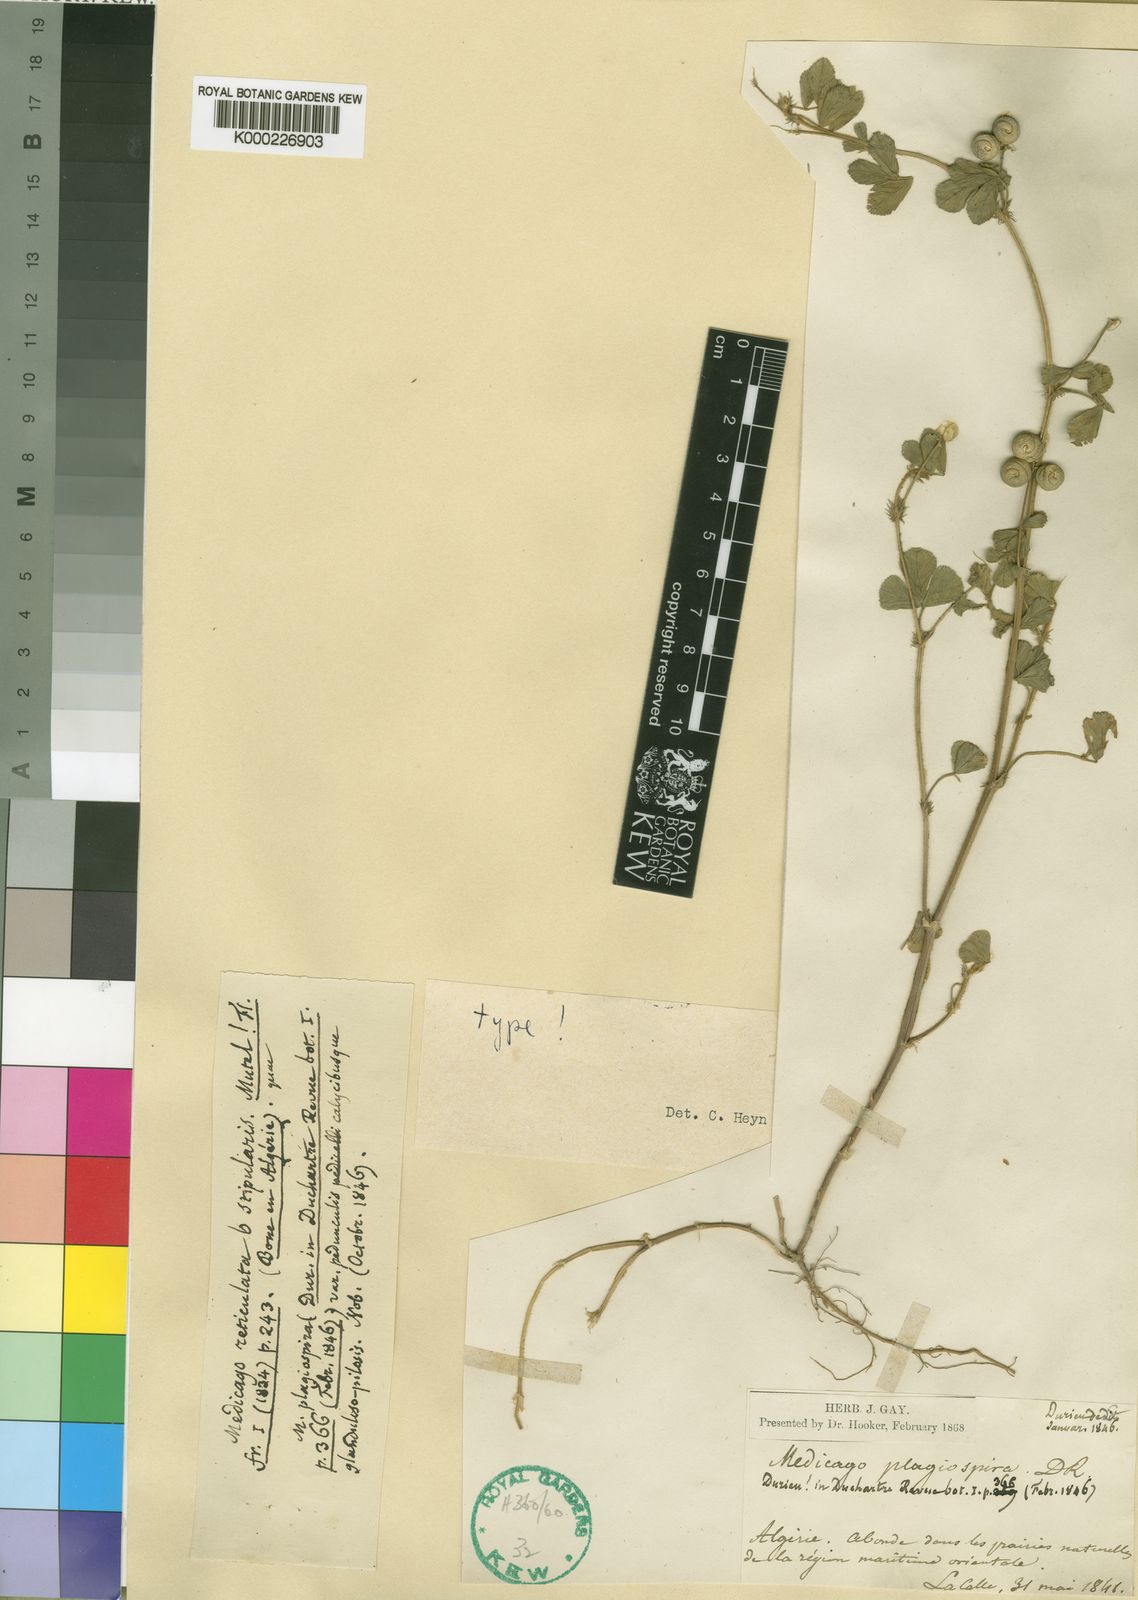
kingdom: Plantae
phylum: Tracheophyta
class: Magnoliopsida
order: Fabales
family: Fabaceae
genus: Medicago
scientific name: Medicago soleirolii
